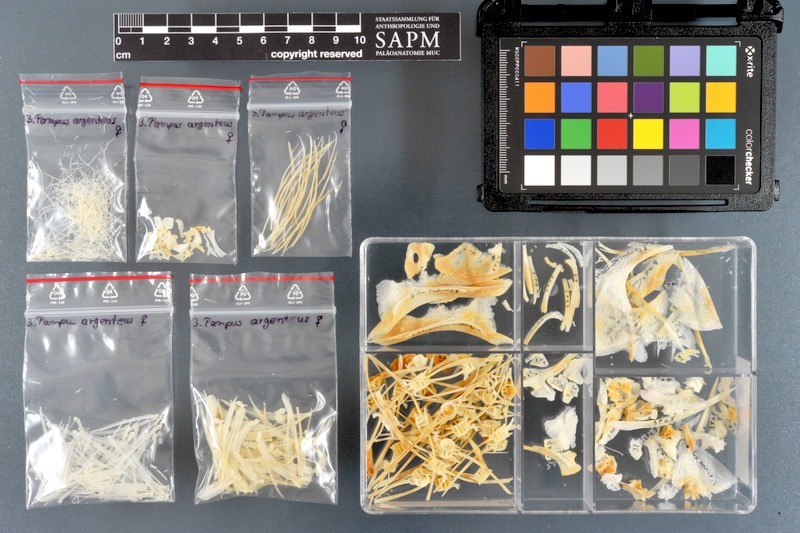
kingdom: Animalia
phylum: Chordata
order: Perciformes
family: Stromateidae
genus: Pampus
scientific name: Pampus argenteus
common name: Silver pomfret
